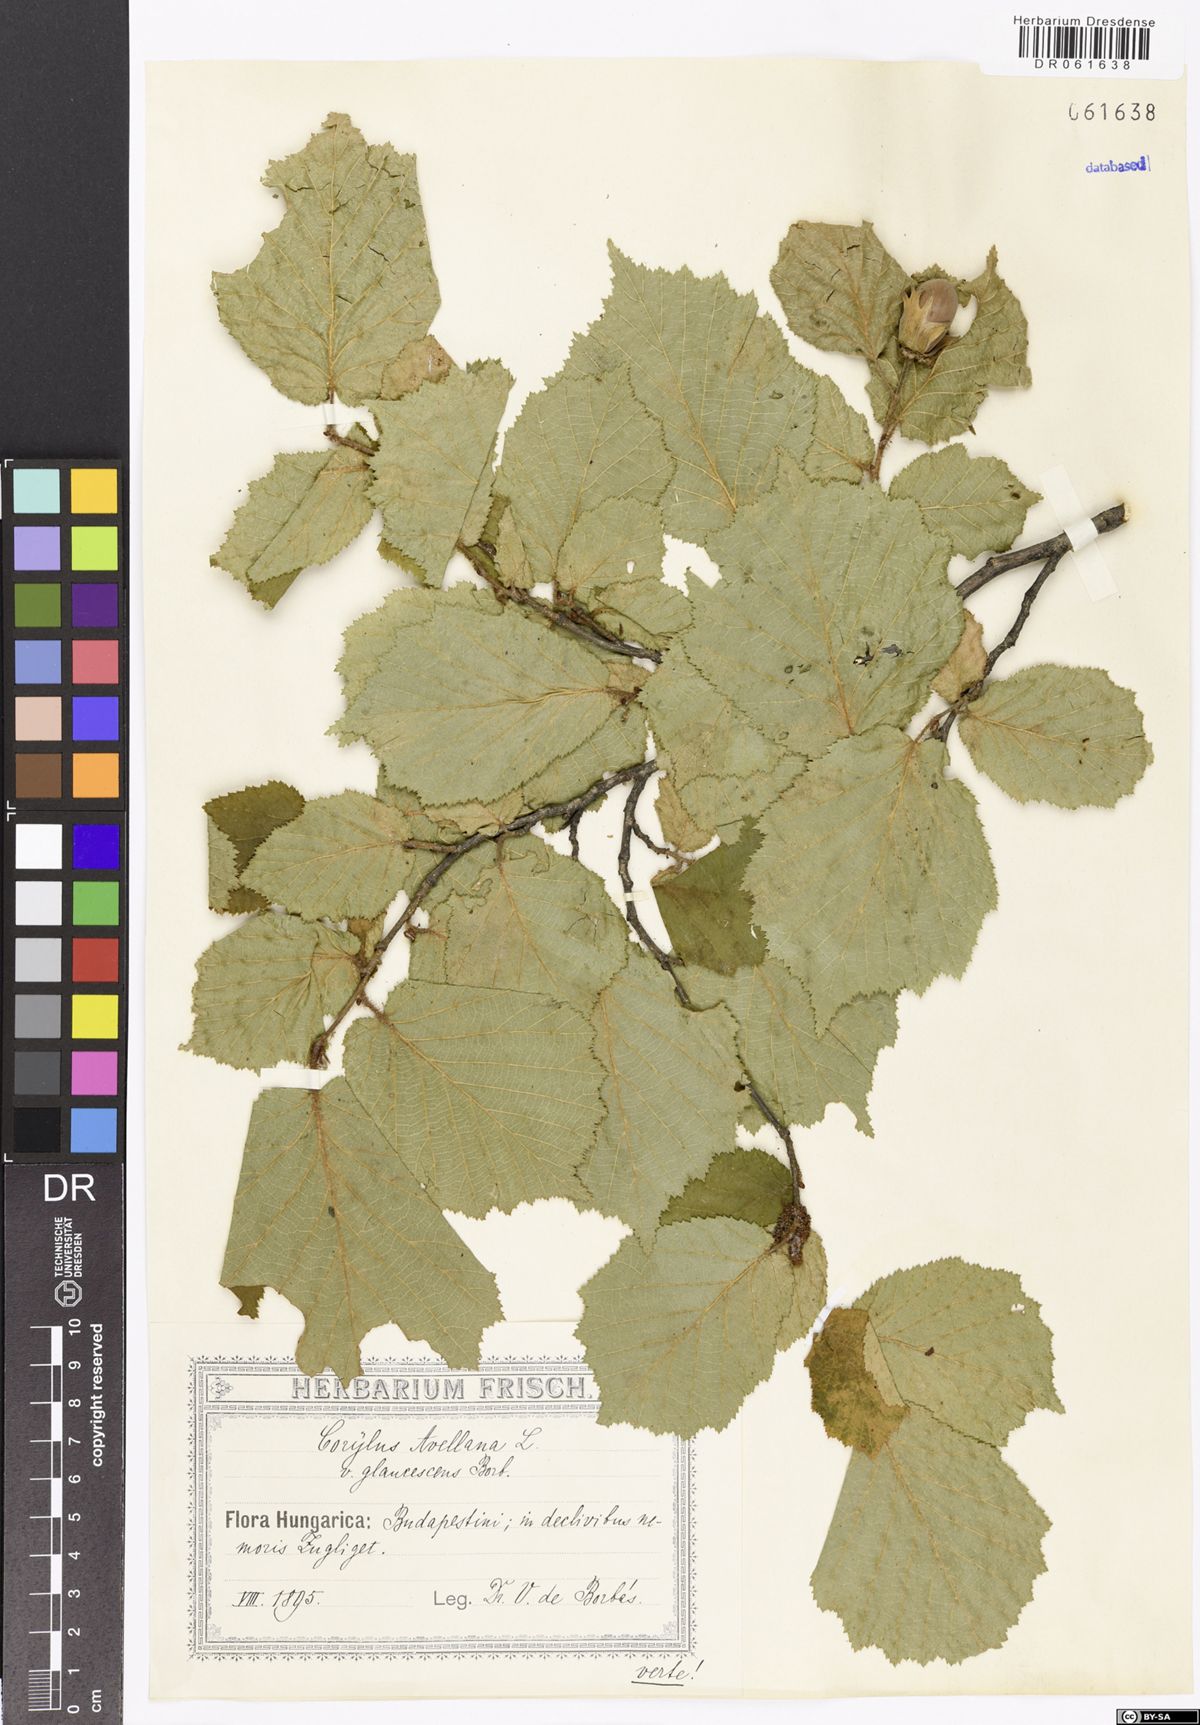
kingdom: Plantae
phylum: Tracheophyta
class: Magnoliopsida
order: Fagales
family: Betulaceae
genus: Corylus
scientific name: Corylus avellana
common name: European hazel
